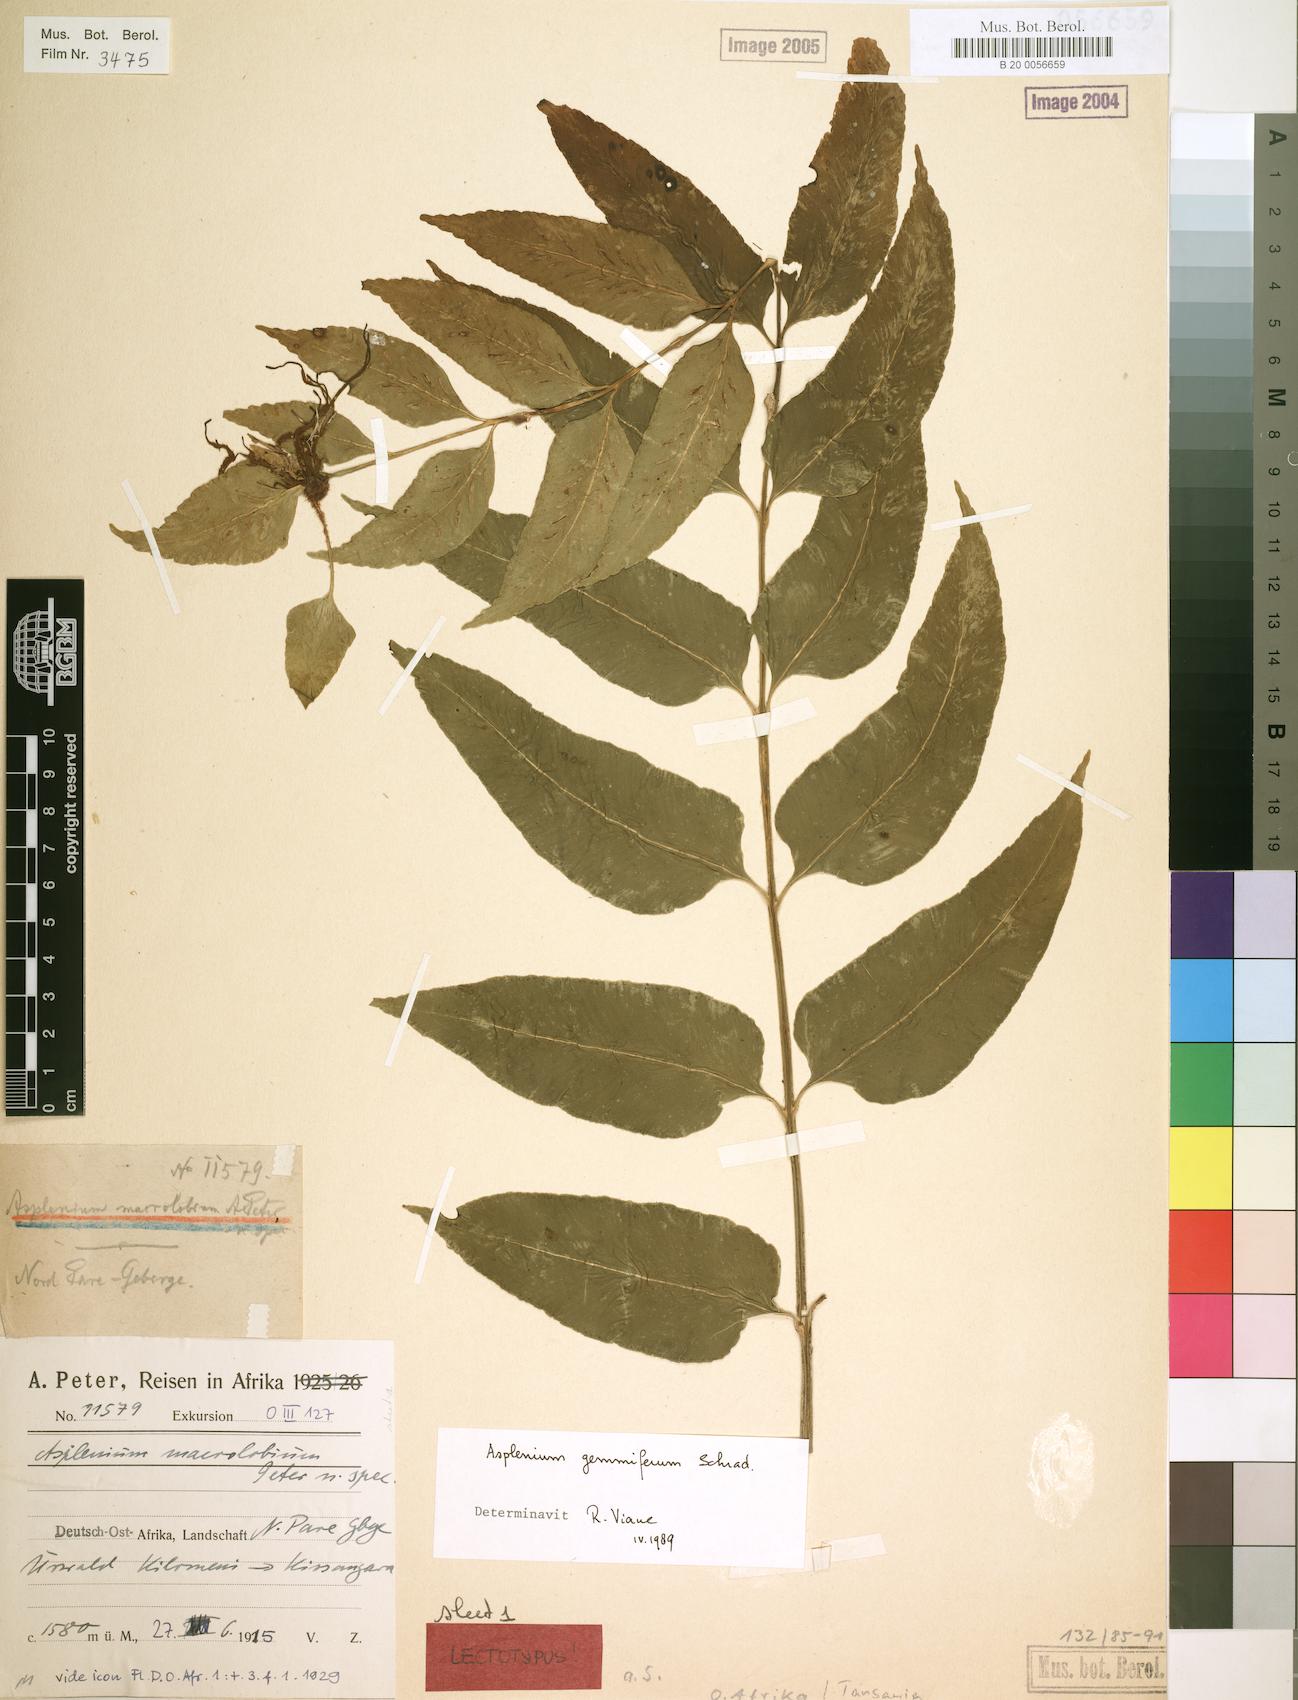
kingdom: Plantae
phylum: Tracheophyta
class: Polypodiopsida
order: Polypodiales
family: Aspleniaceae
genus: Asplenium
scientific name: Asplenium gemmiferum
